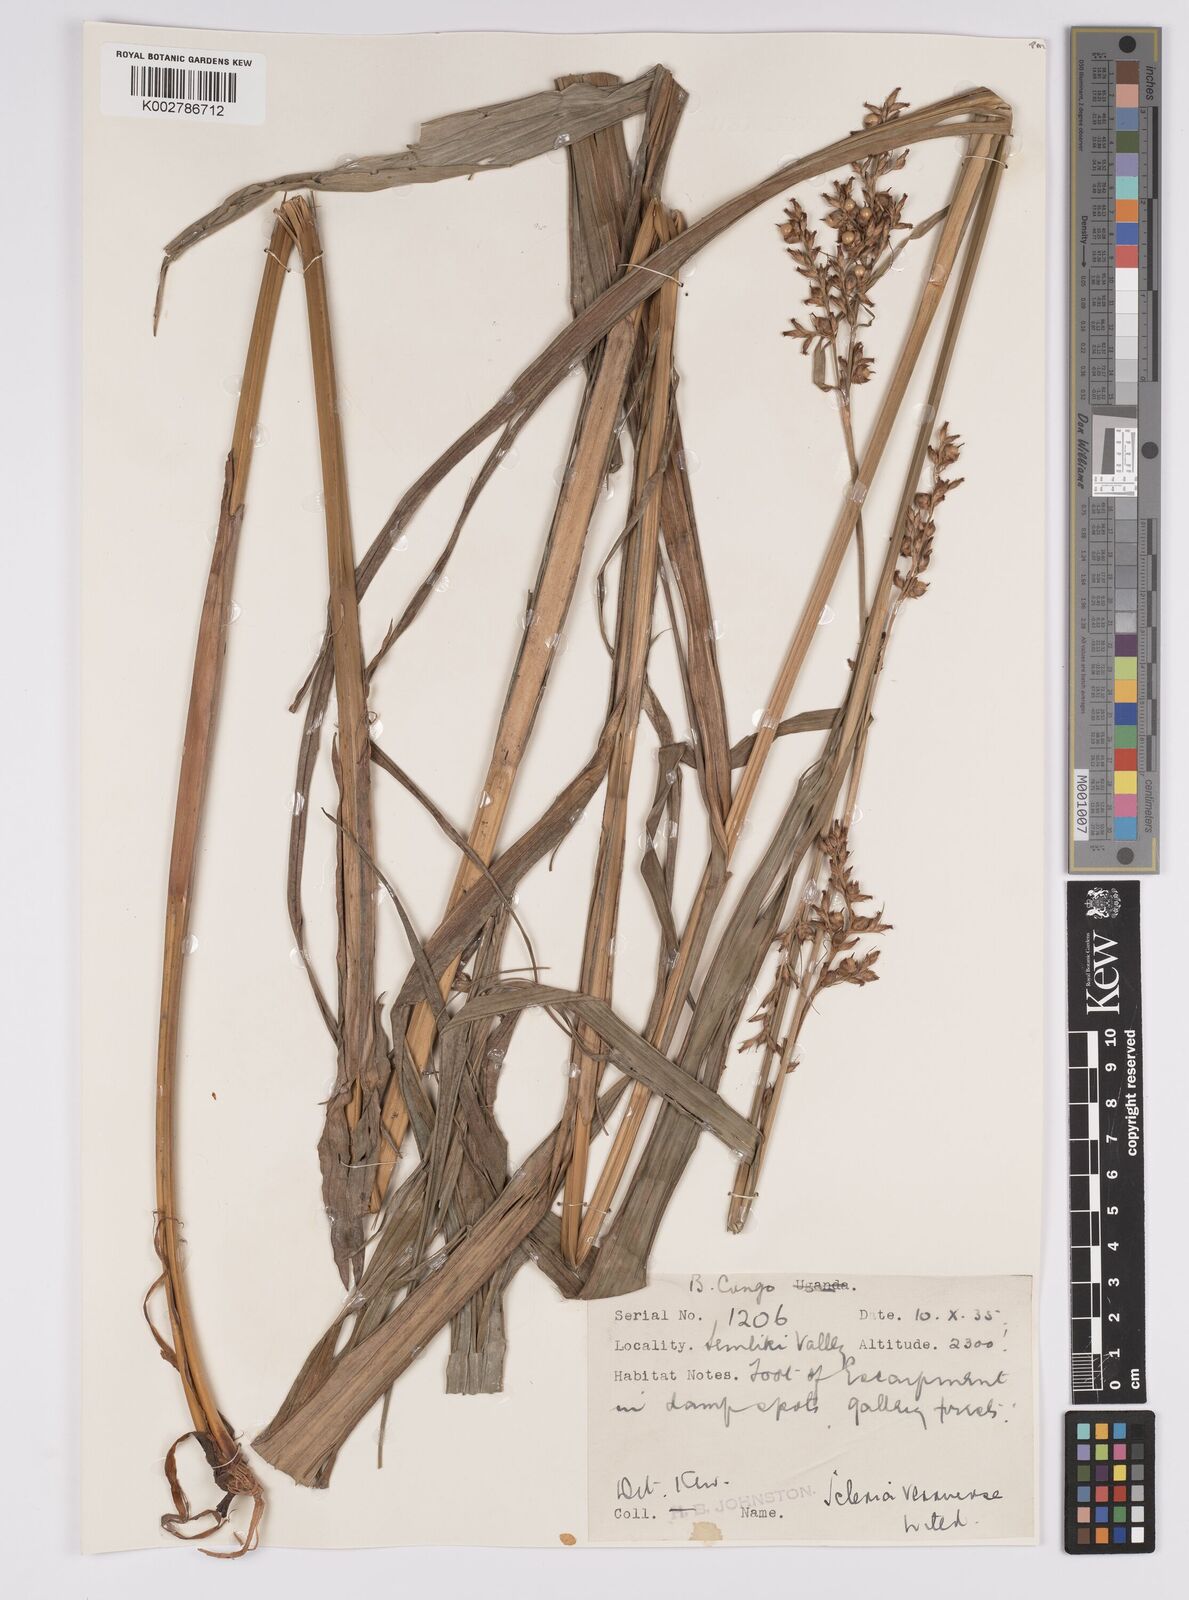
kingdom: Plantae
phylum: Tracheophyta
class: Liliopsida
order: Poales
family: Cyperaceae
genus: Scleria
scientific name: Scleria verrucosa
